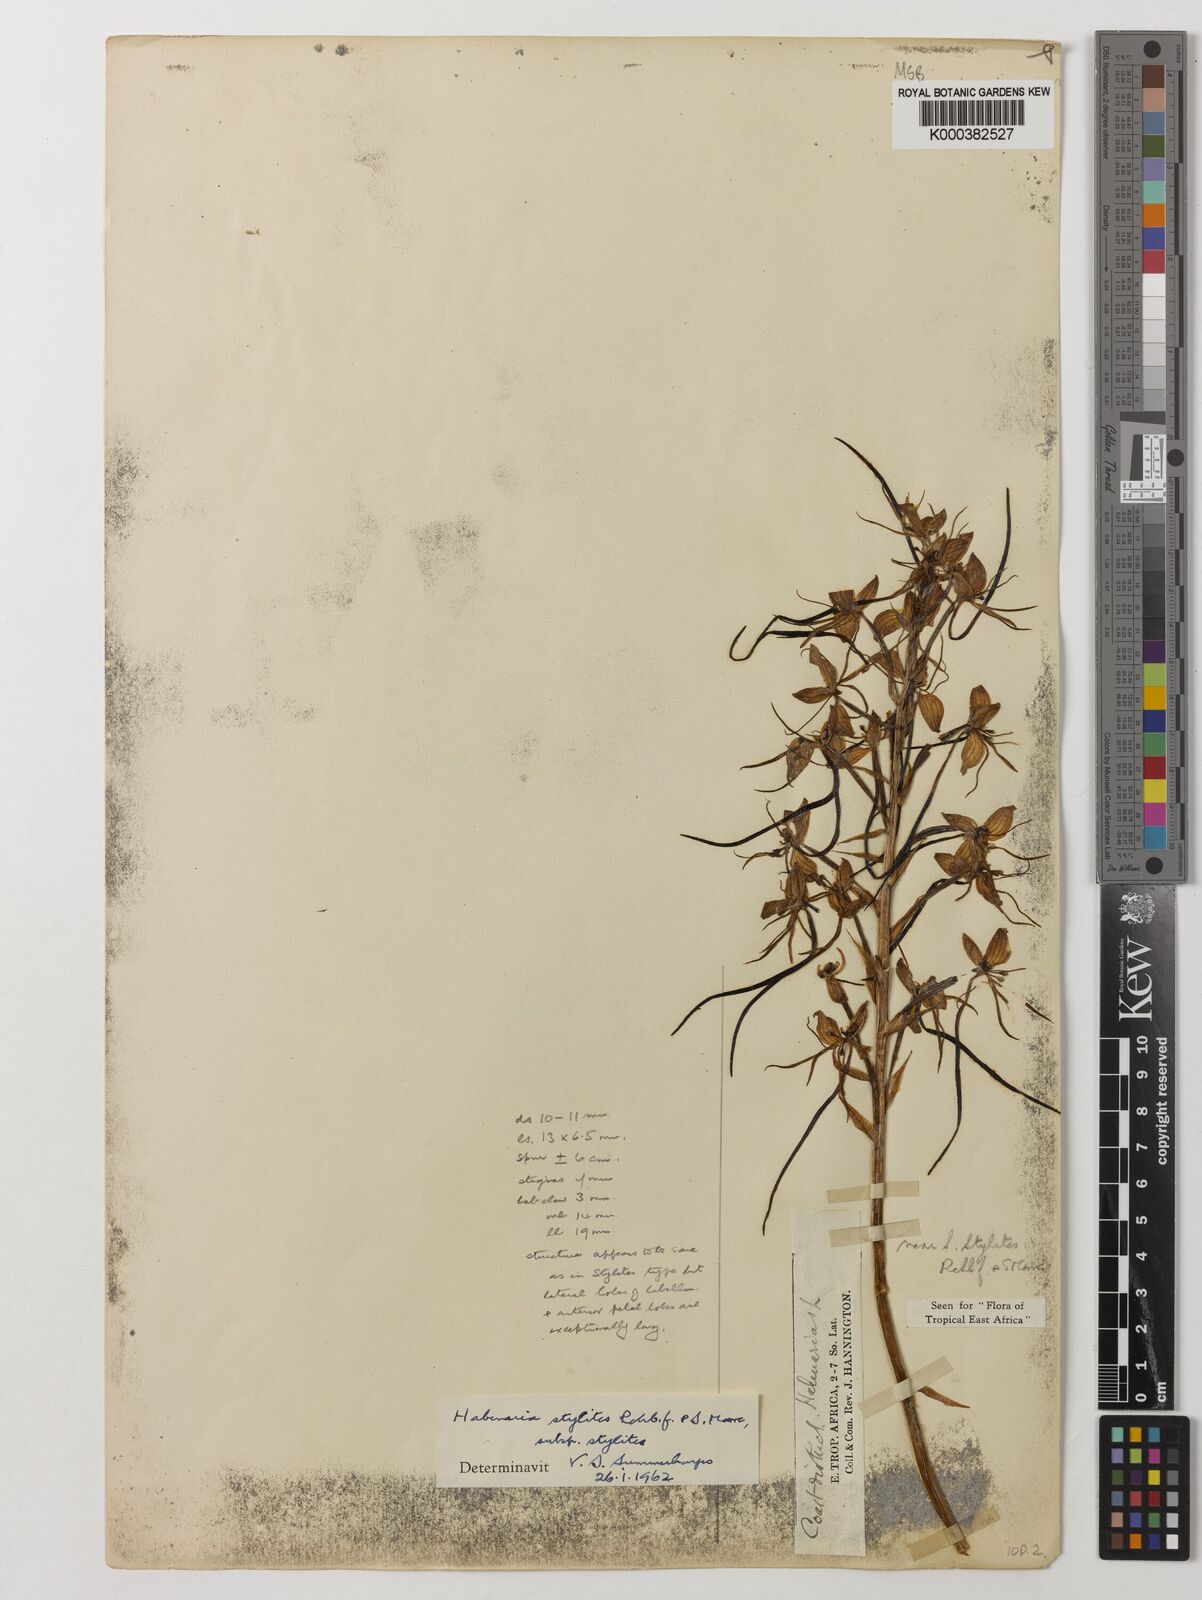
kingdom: Plantae
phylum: Tracheophyta
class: Liliopsida
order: Asparagales
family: Orchidaceae
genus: Habenaria
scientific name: Habenaria stylites
